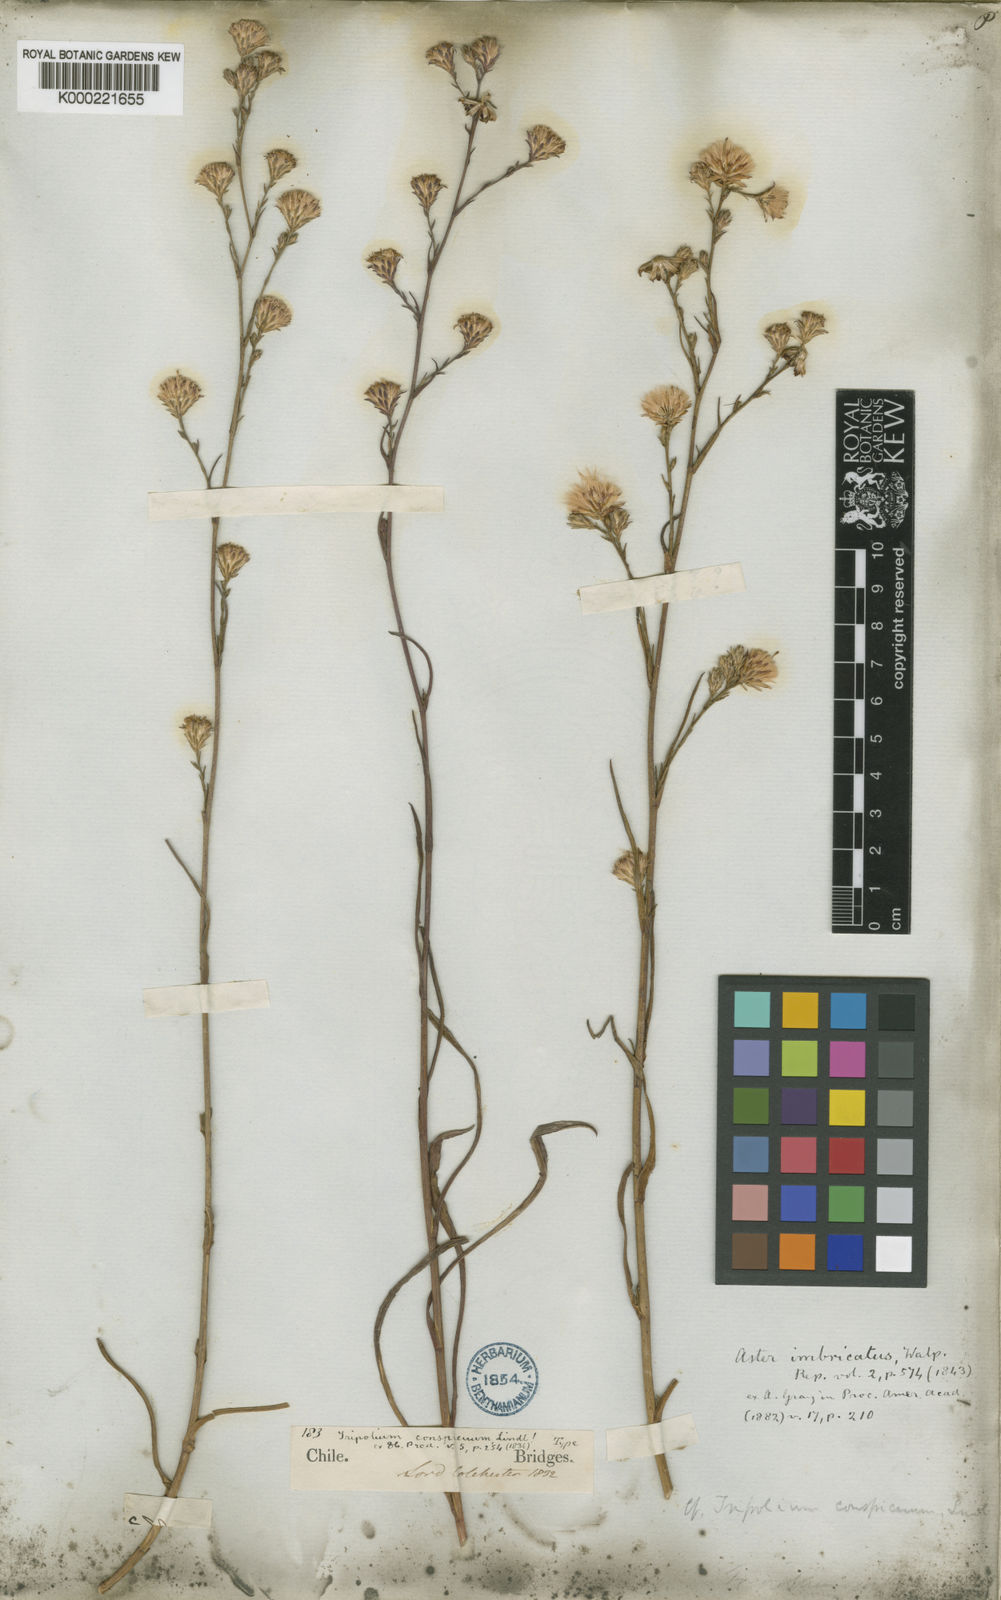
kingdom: Plantae
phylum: Tracheophyta
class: Magnoliopsida
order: Asterales
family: Asteraceae
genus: Symphyotrichum
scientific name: Symphyotrichum squamatum
